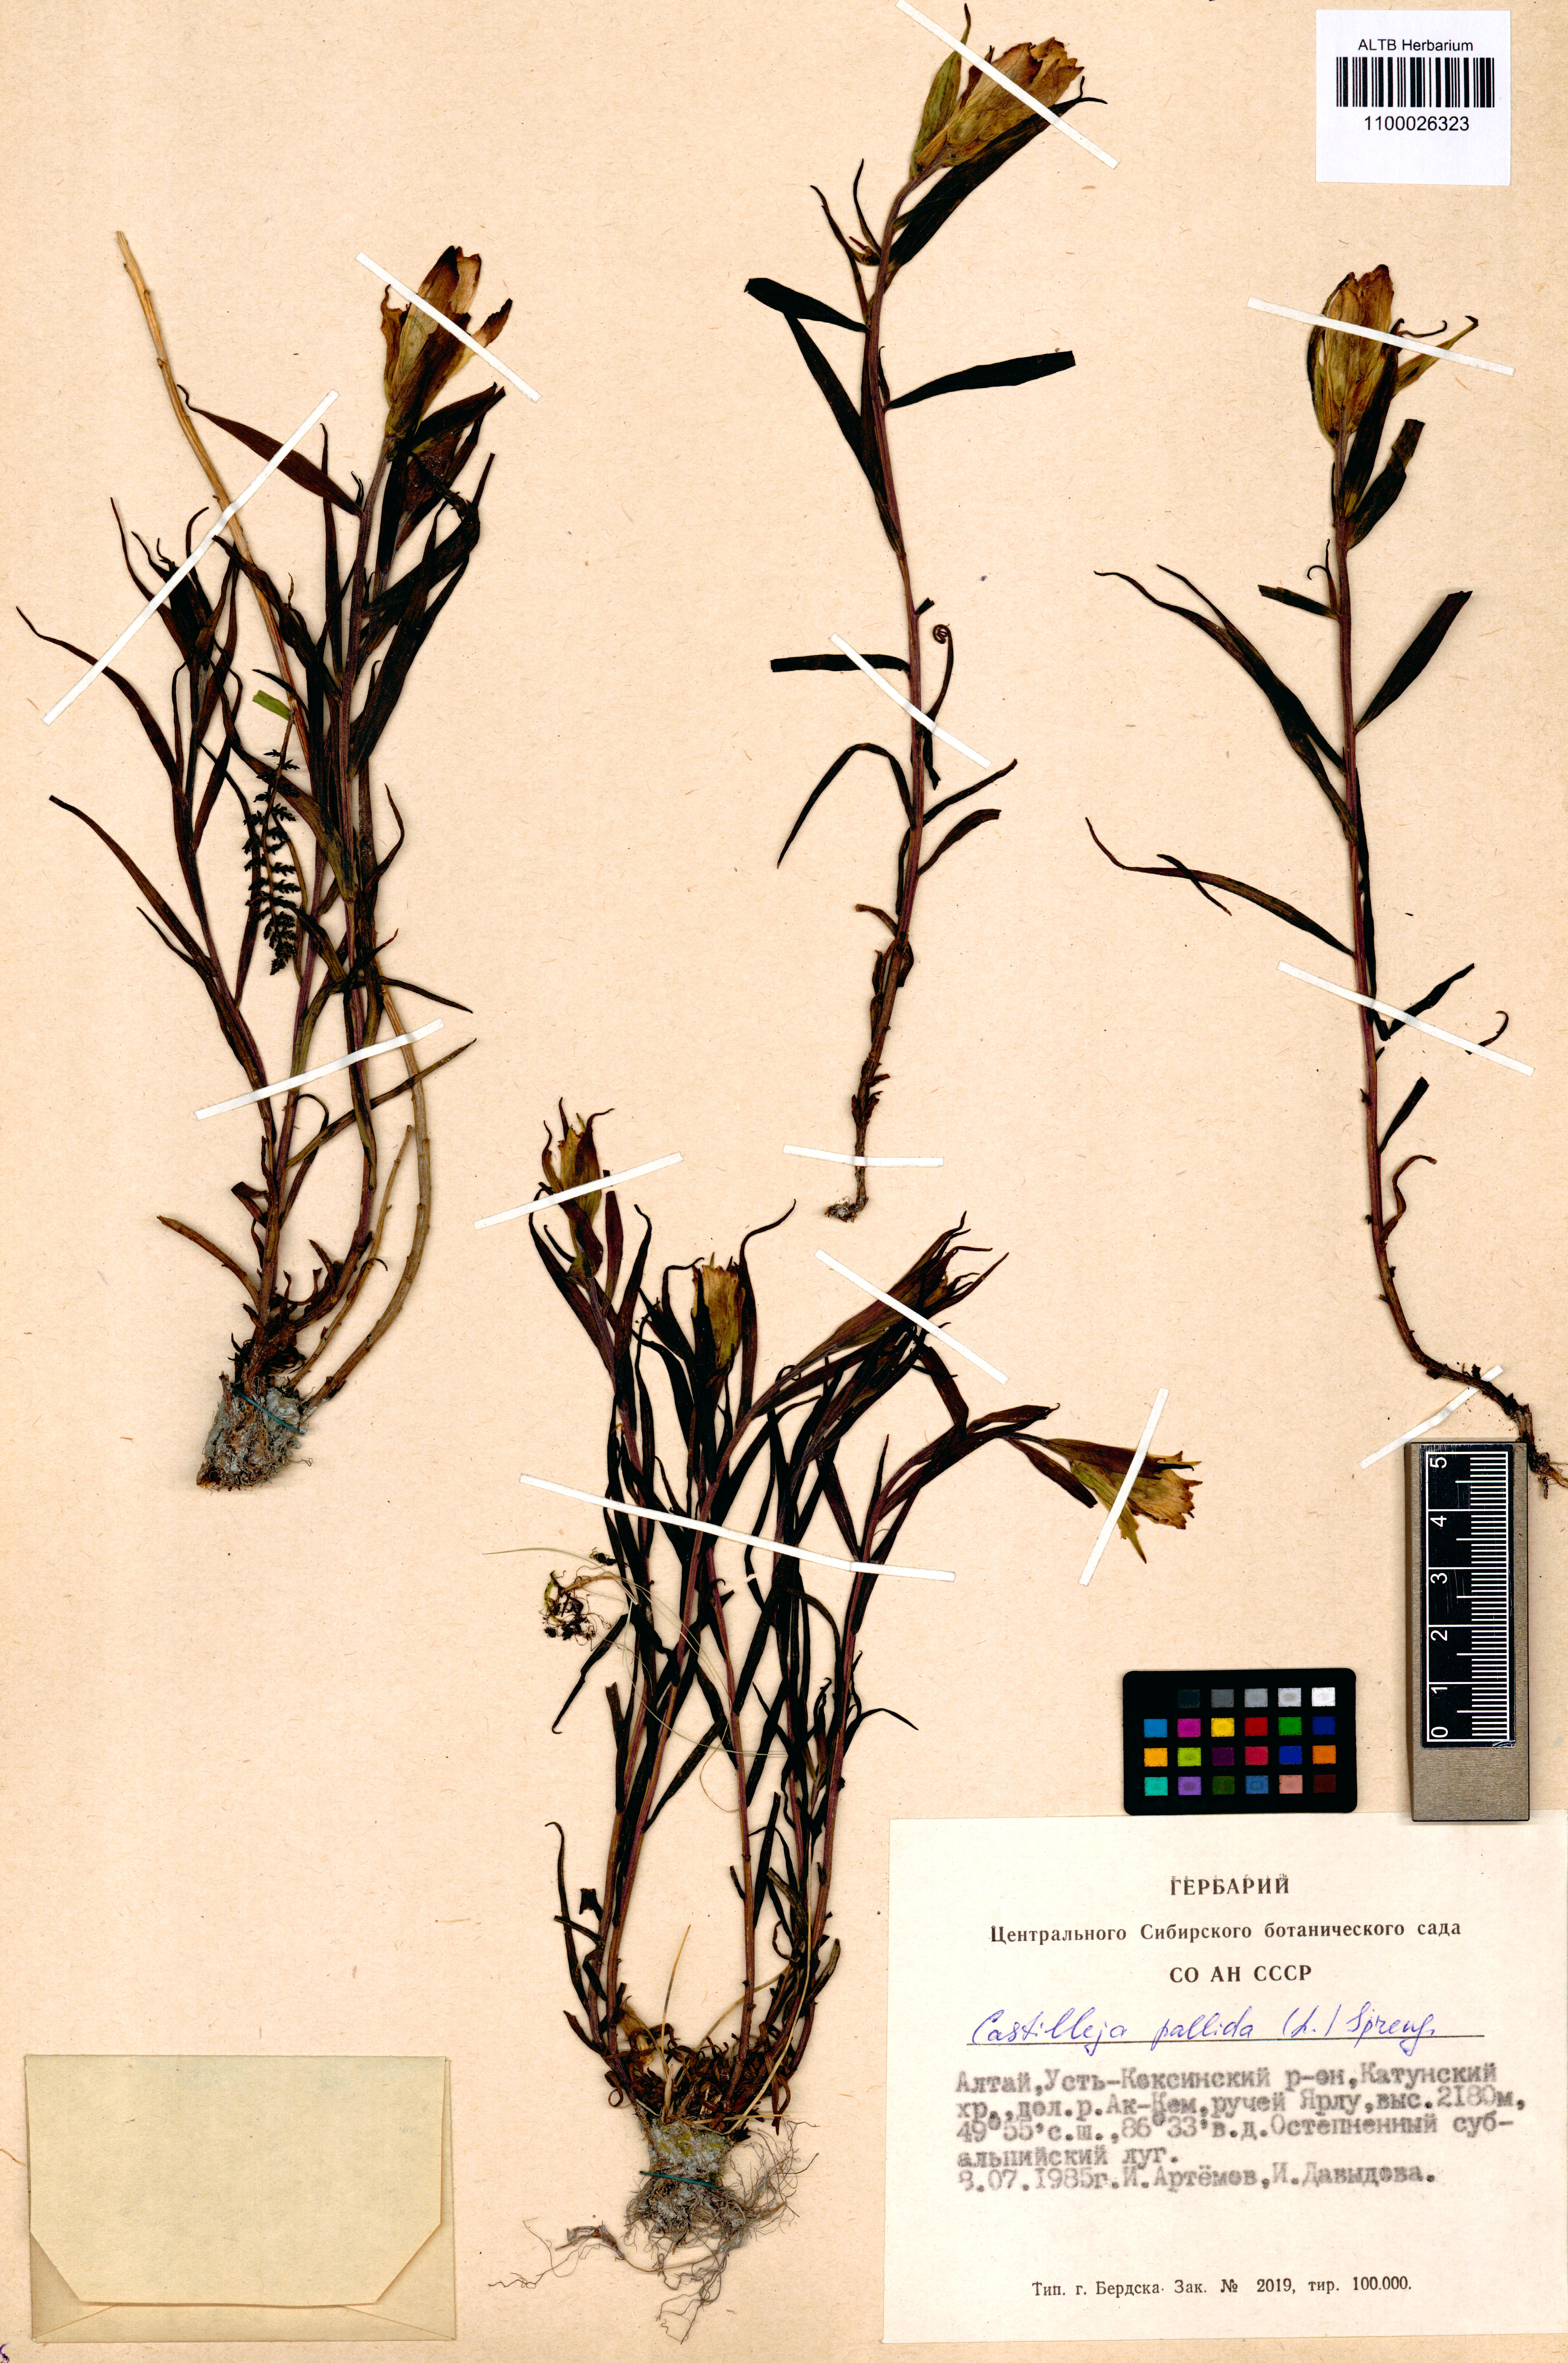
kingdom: Plantae
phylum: Tracheophyta
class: Magnoliopsida
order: Lamiales
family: Orobanchaceae
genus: Castilleja
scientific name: Castilleja pallida
